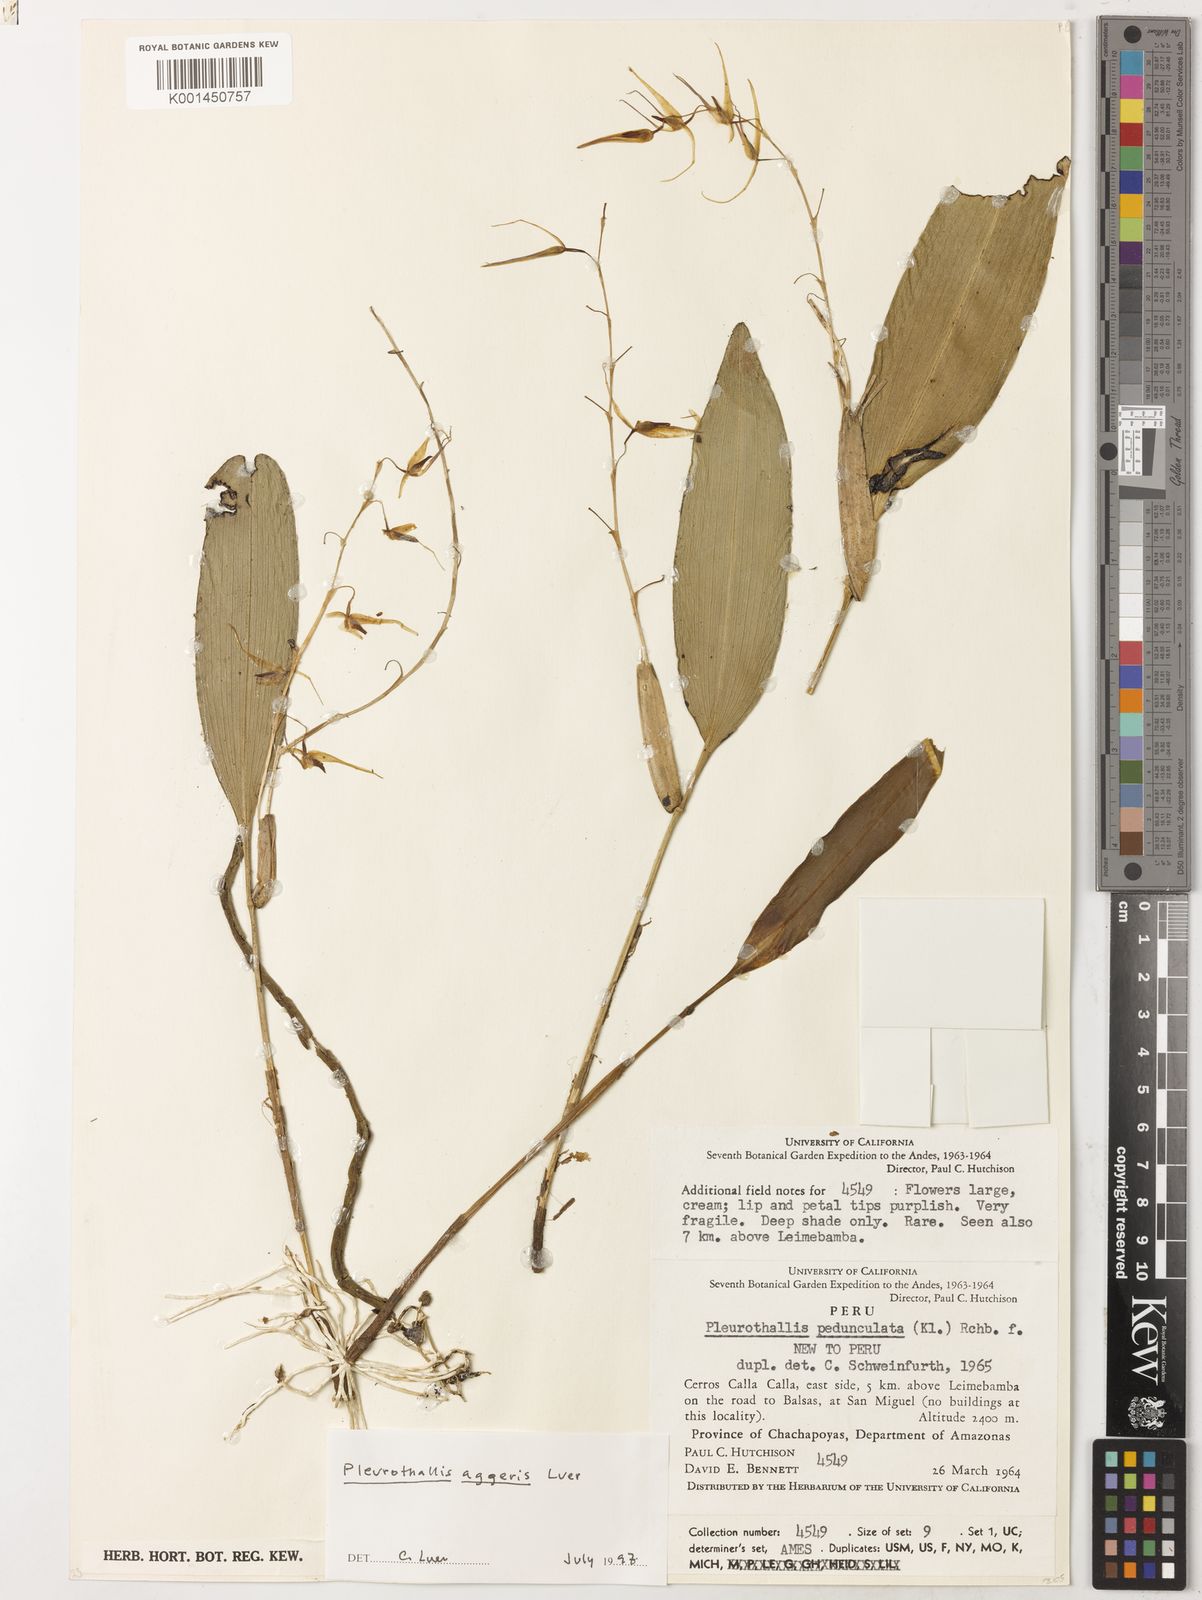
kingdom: Plantae
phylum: Tracheophyta
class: Liliopsida
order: Asparagales
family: Orchidaceae
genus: Pleurothallis
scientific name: Pleurothallis aggeris
